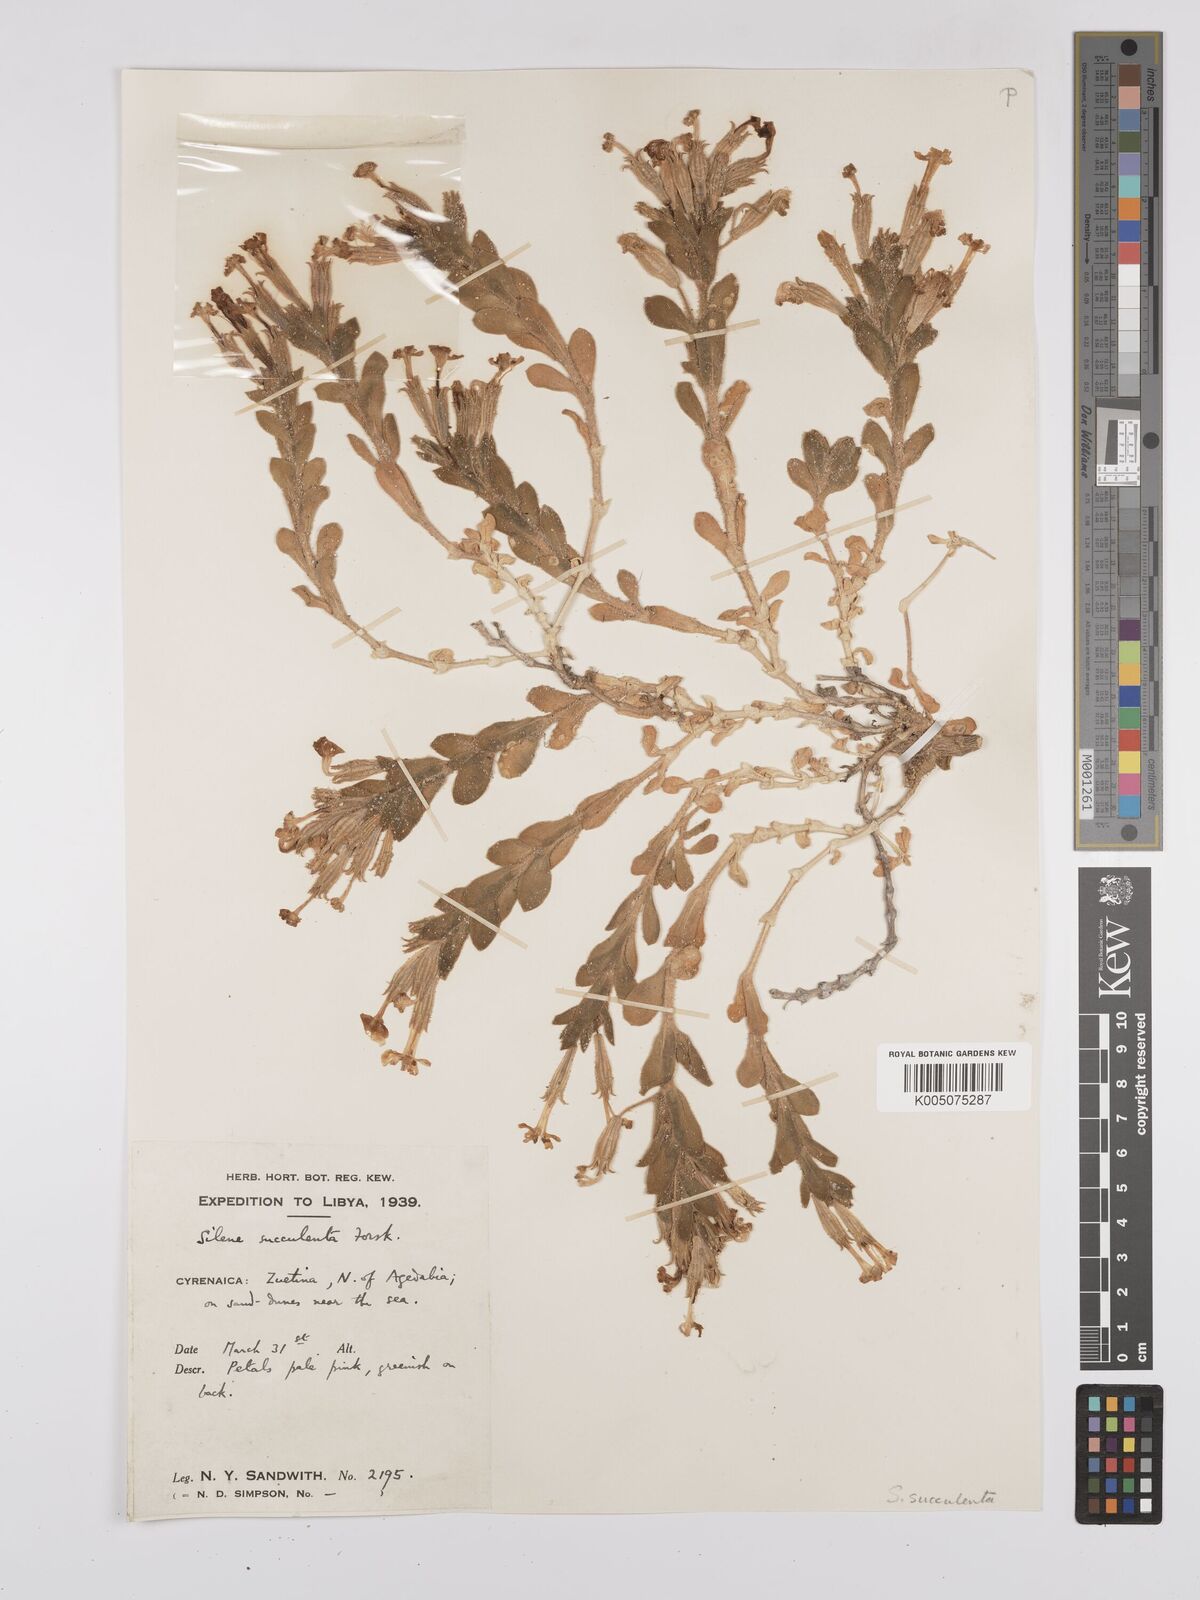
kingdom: Plantae
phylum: Tracheophyta
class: Magnoliopsida
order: Caryophyllales
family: Caryophyllaceae
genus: Silene
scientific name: Silene succulenta
